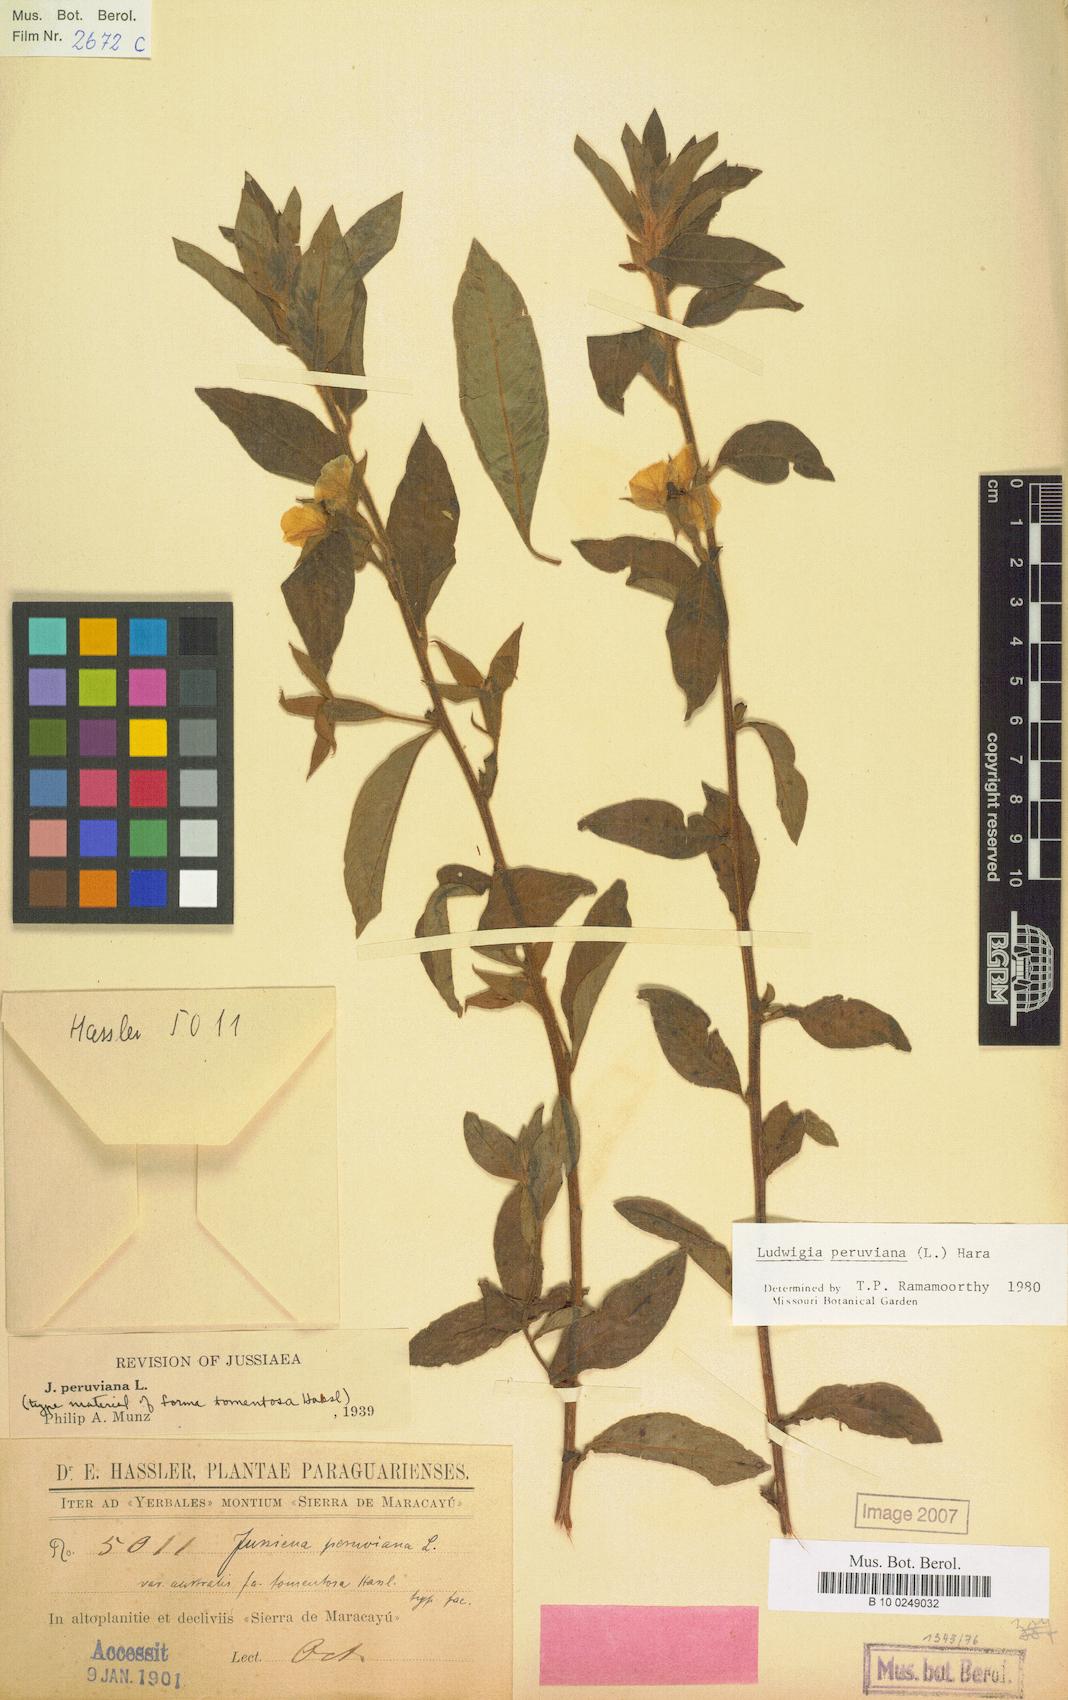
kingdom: Plantae
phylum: Tracheophyta
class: Magnoliopsida
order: Myrtales
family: Onagraceae
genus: Ludwigia
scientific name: Ludwigia peruviana
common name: Peruvian primrose-willow
